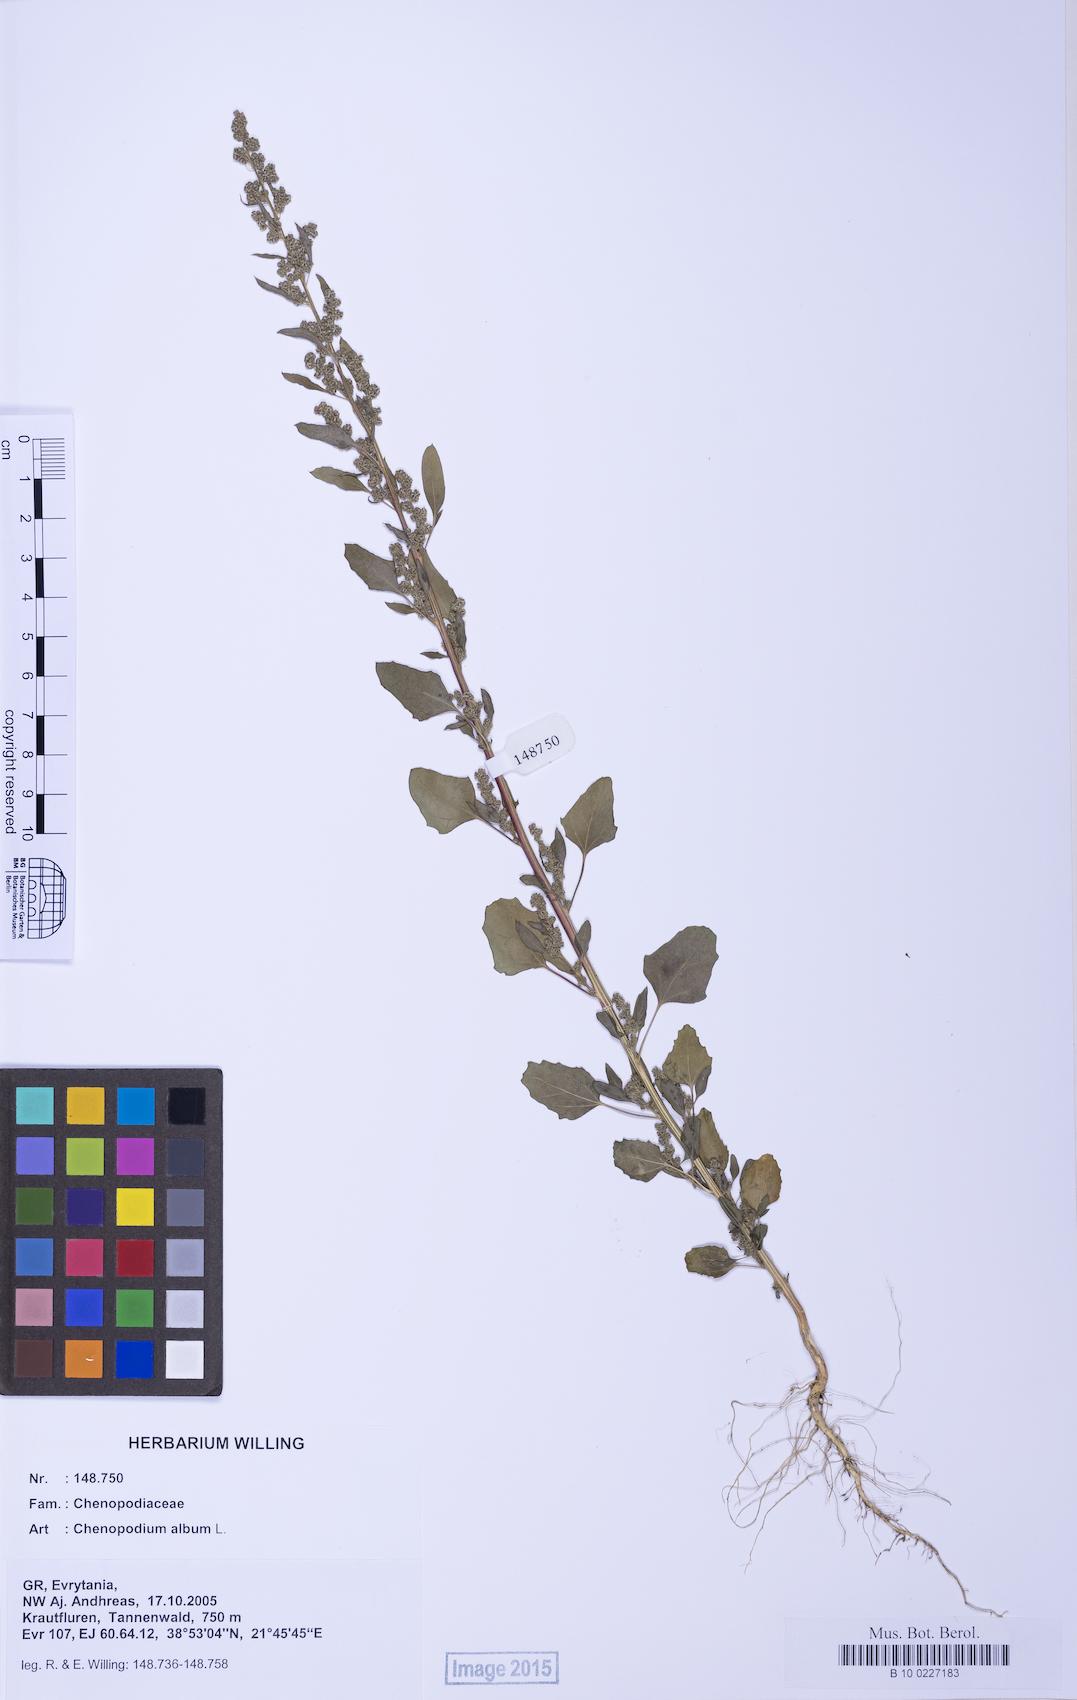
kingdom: Plantae
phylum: Tracheophyta
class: Magnoliopsida
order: Caryophyllales
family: Amaranthaceae
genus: Chenopodium
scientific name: Chenopodium album
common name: Fat-hen
